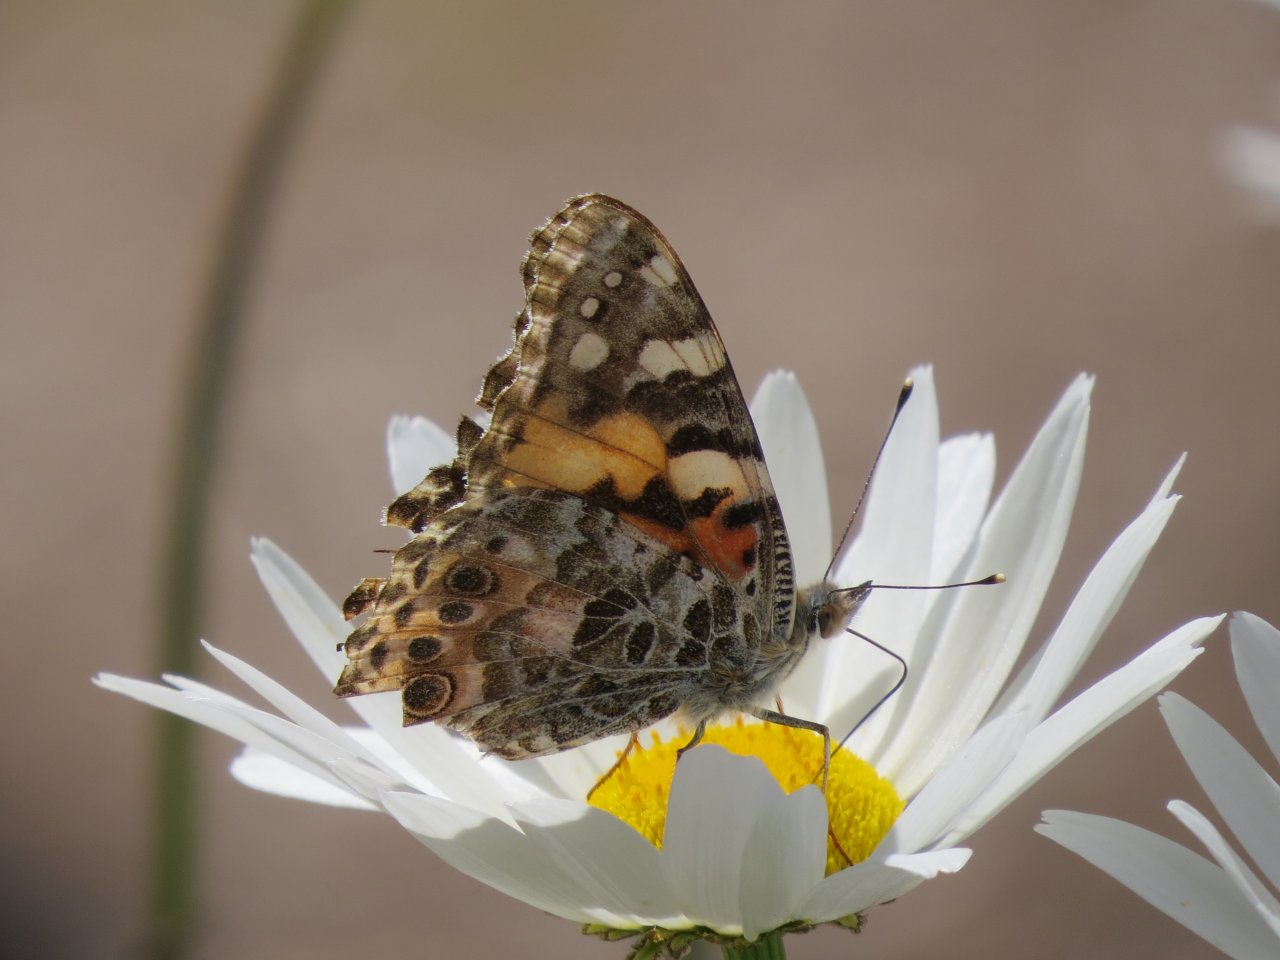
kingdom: Animalia
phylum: Arthropoda
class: Insecta
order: Lepidoptera
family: Nymphalidae
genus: Vanessa
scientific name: Vanessa cardui
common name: Painted Lady
